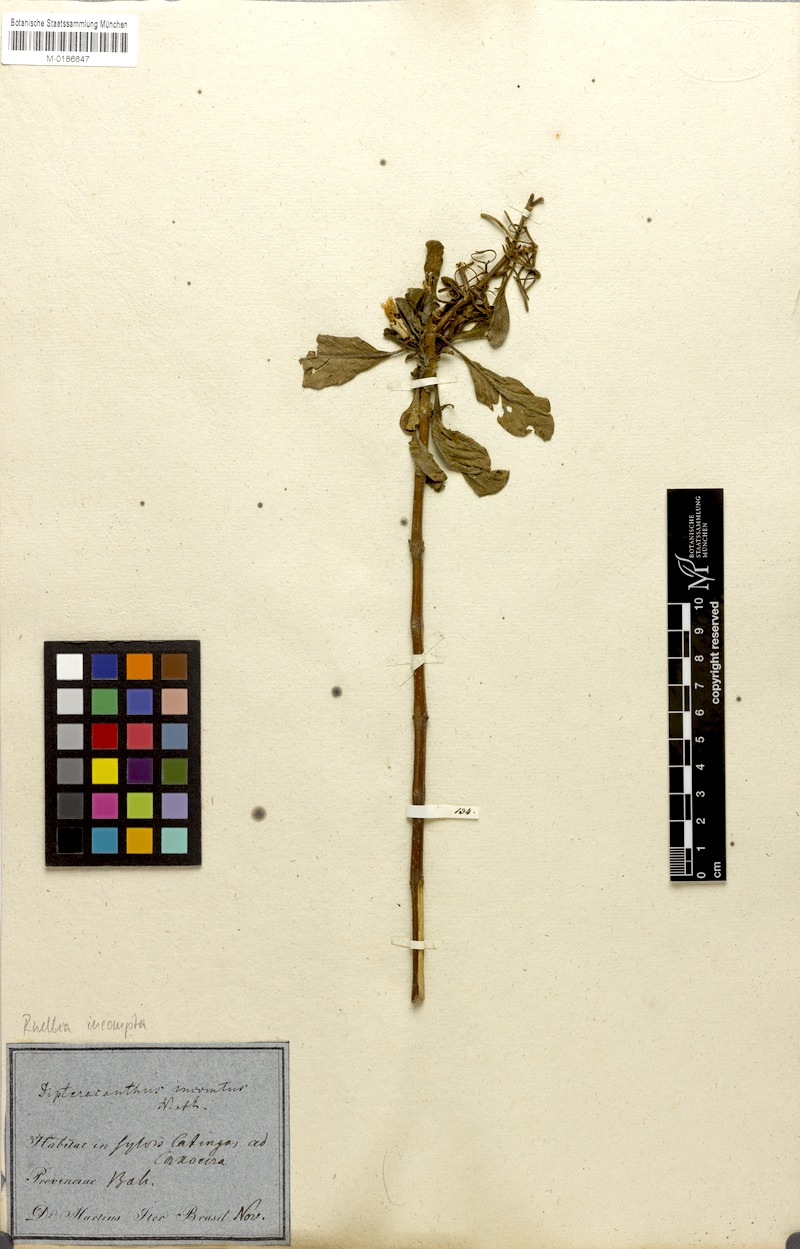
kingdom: Plantae
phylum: Tracheophyta
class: Magnoliopsida
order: Lamiales
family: Acanthaceae
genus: Ruellia
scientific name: Ruellia incomta
